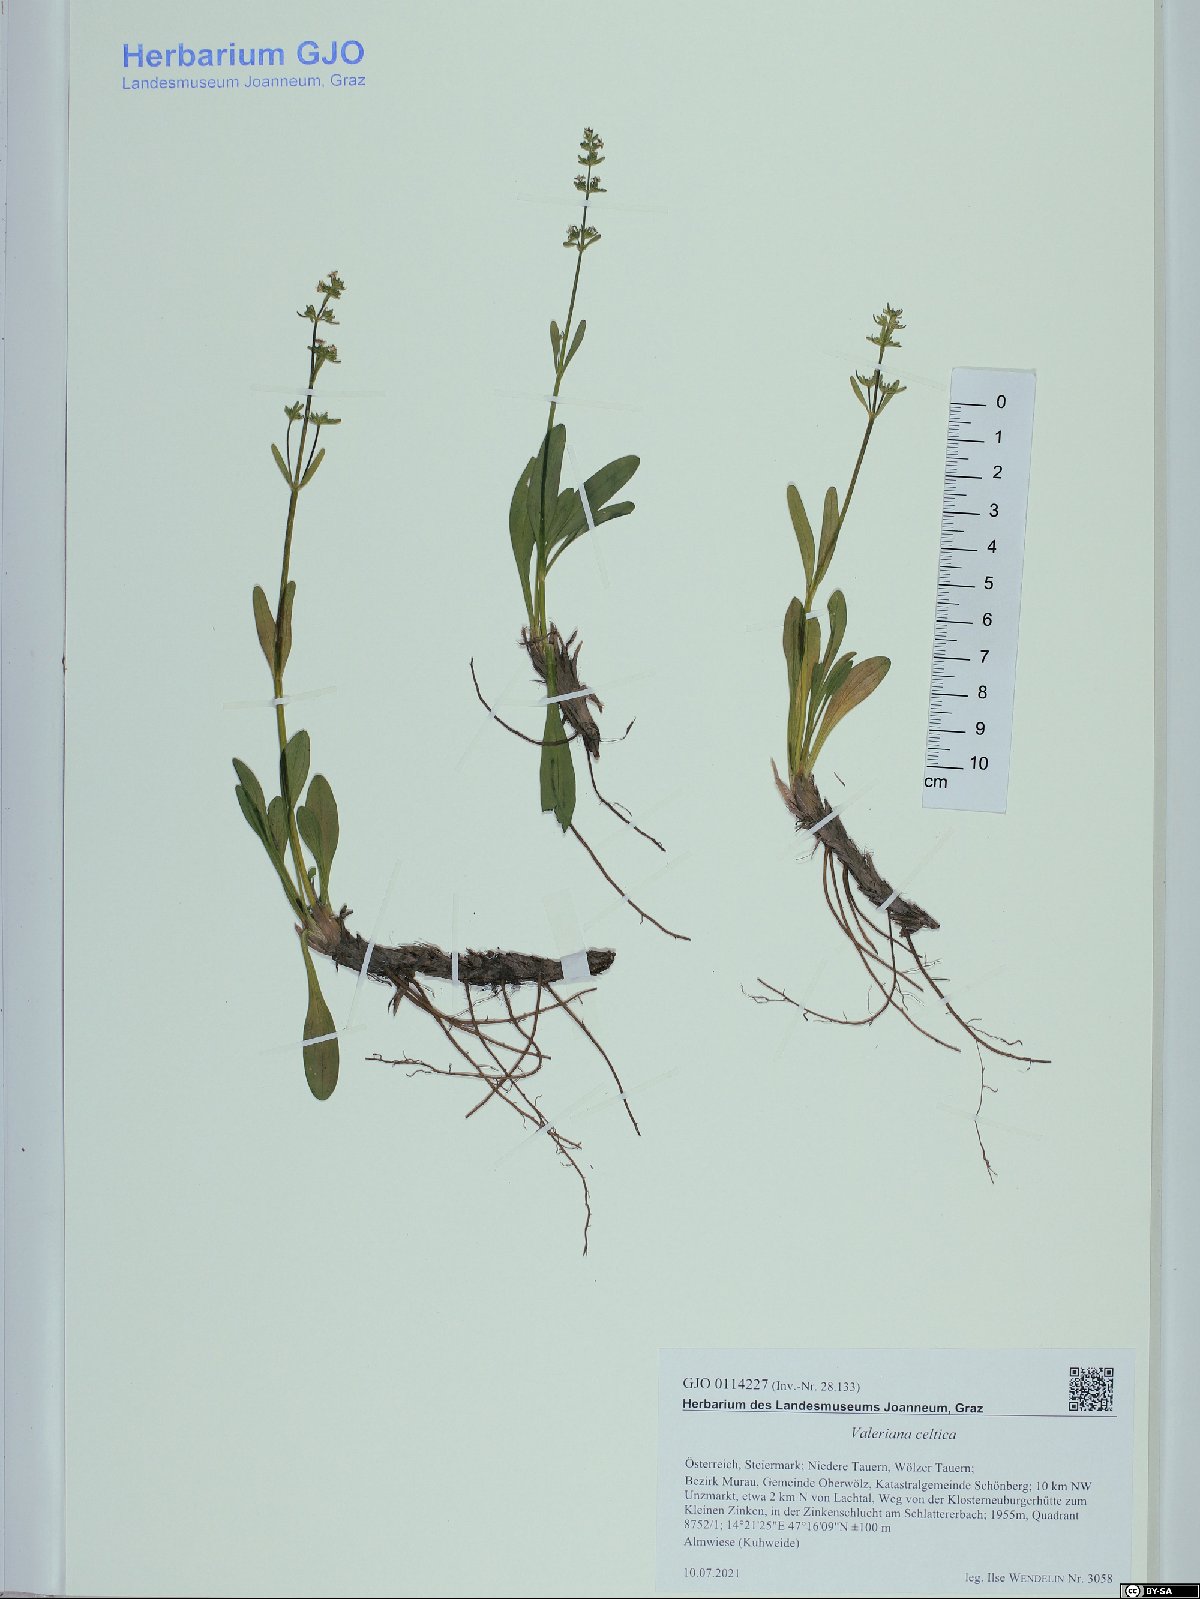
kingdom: Plantae
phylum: Tracheophyta
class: Magnoliopsida
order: Dipsacales
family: Caprifoliaceae
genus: Valeriana
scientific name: Valeriana celtica
